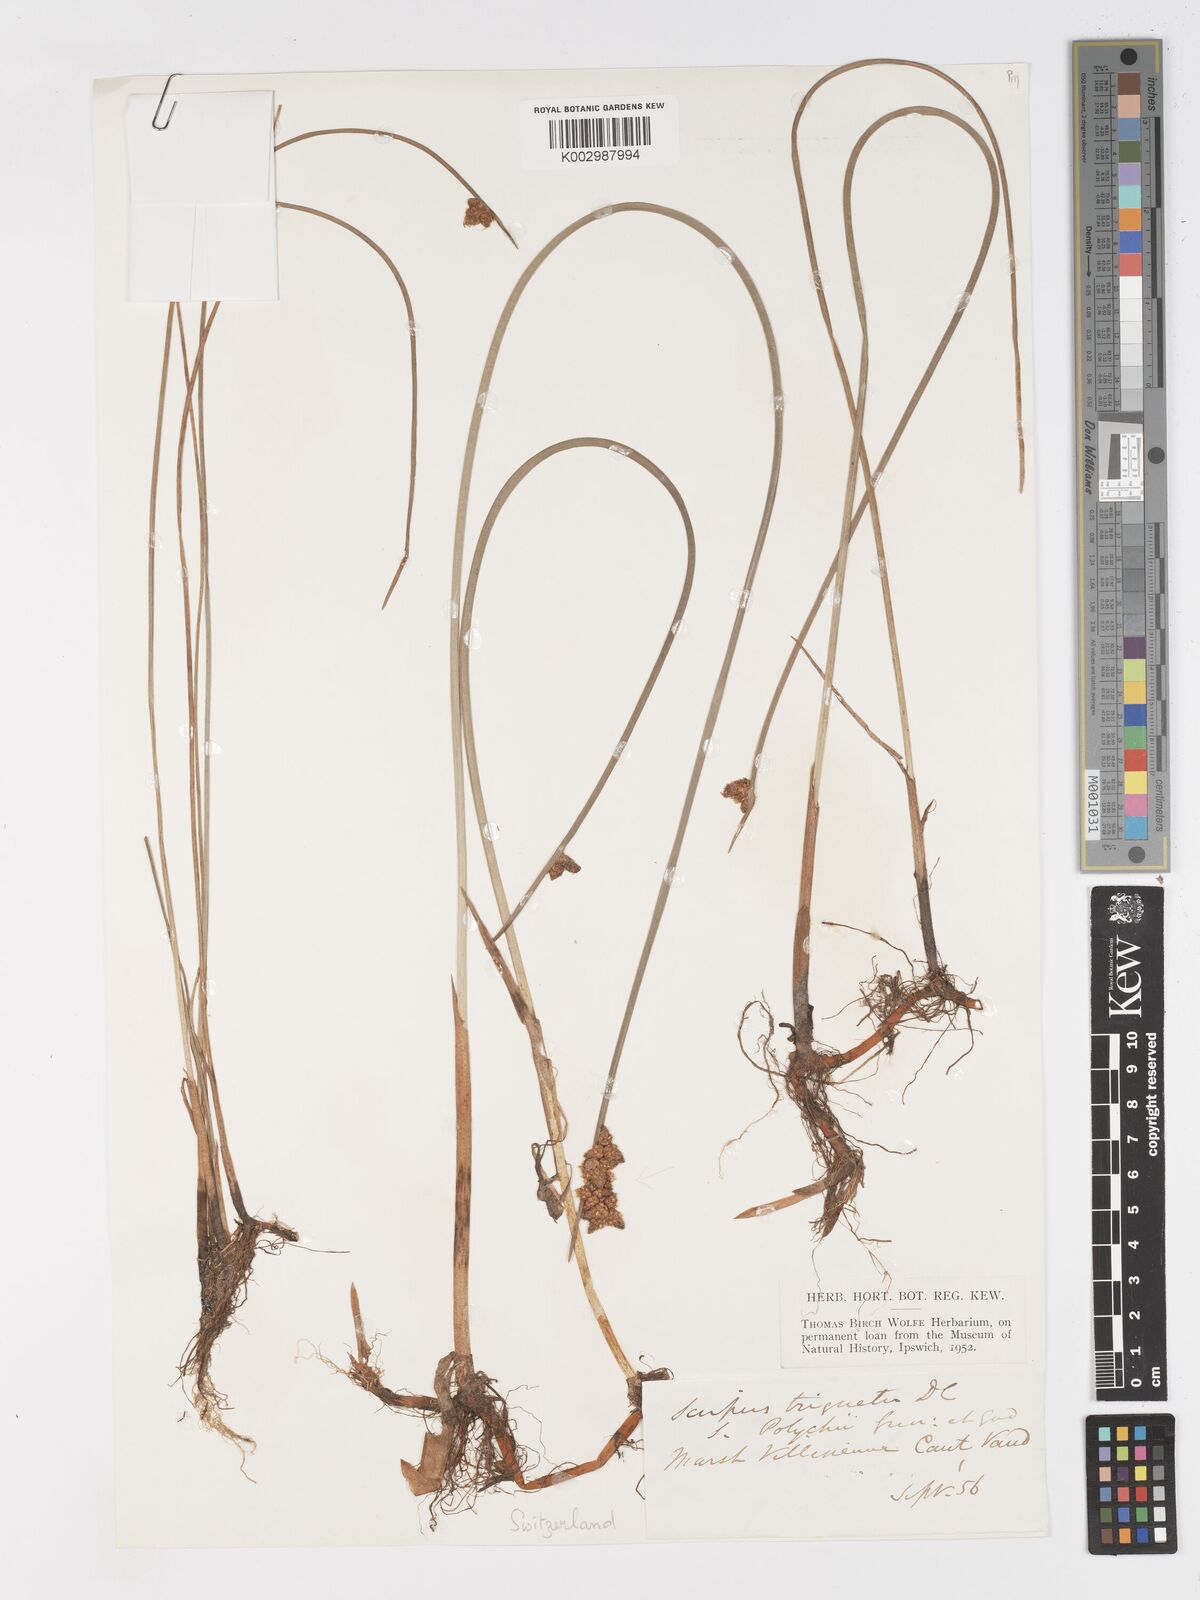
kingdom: Plantae
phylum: Tracheophyta
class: Liliopsida
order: Poales
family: Cyperaceae
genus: Schoenoplectus
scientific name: Schoenoplectus triqueter
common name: Triangular club-rush
